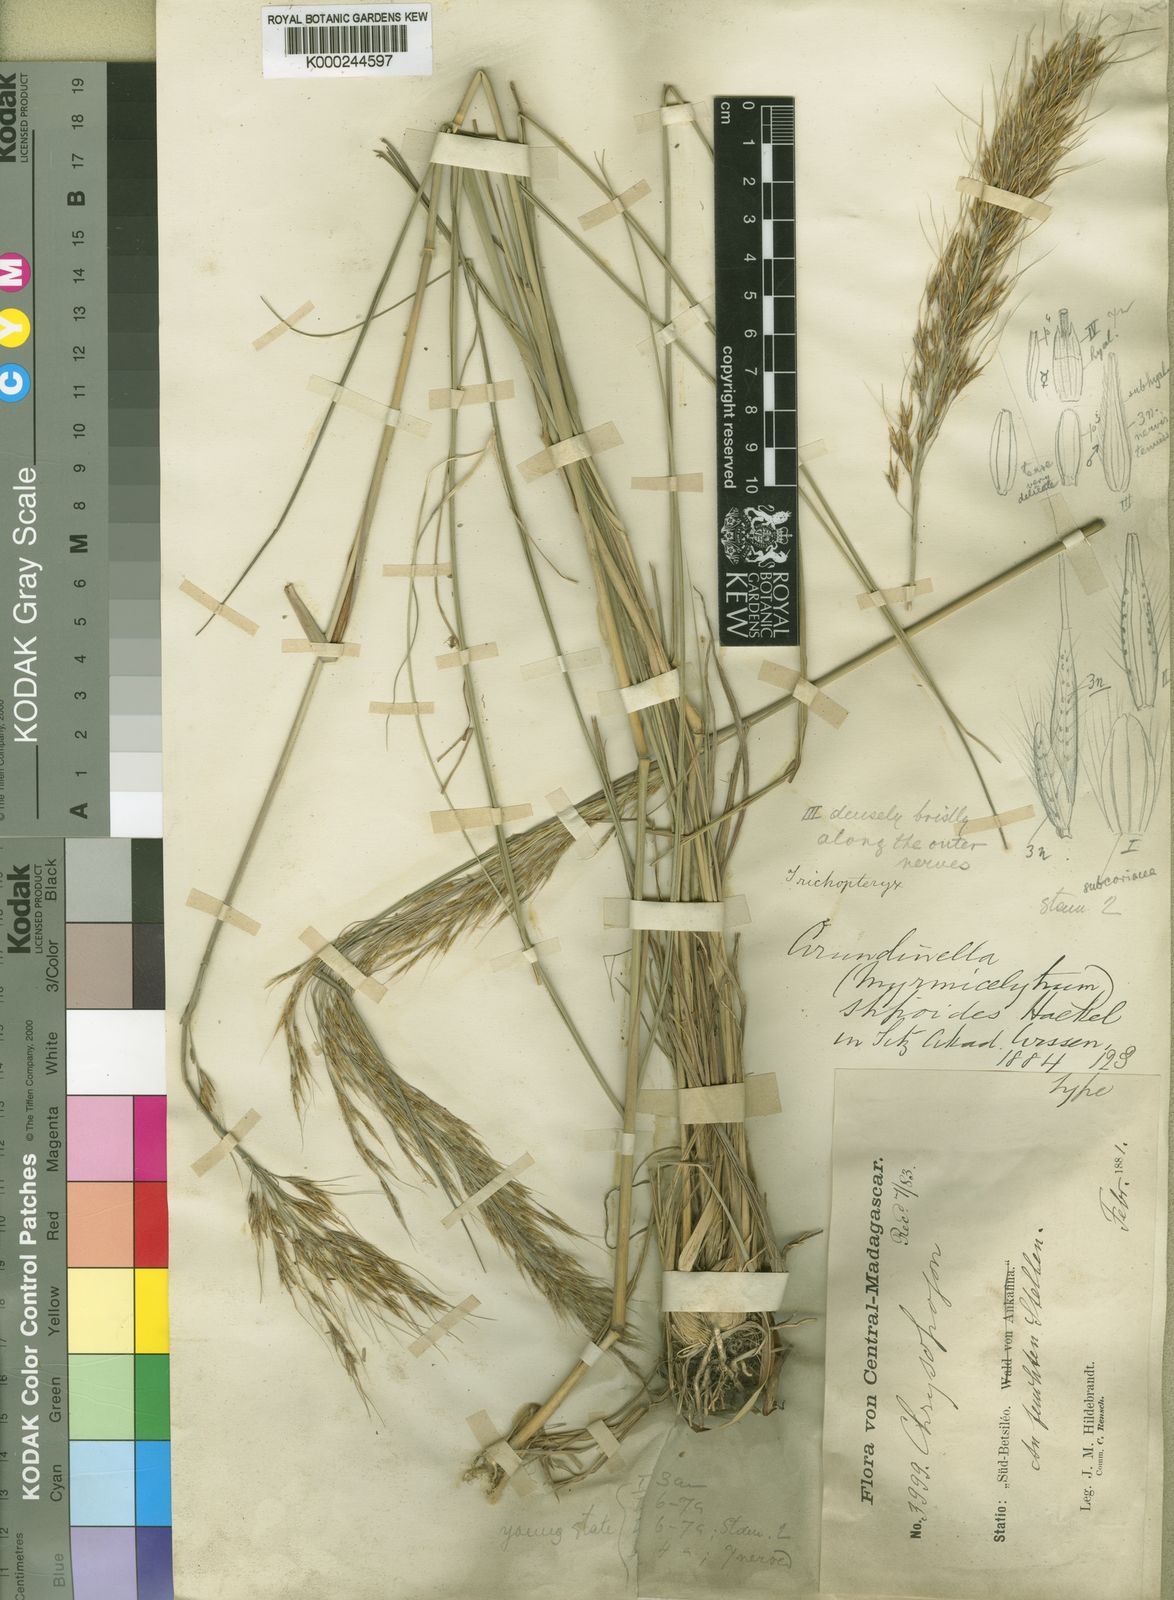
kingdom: Plantae
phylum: Tracheophyta
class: Liliopsida
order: Poales
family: Poaceae
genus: Loudetia
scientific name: Loudetia simplex
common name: Common russet grass
